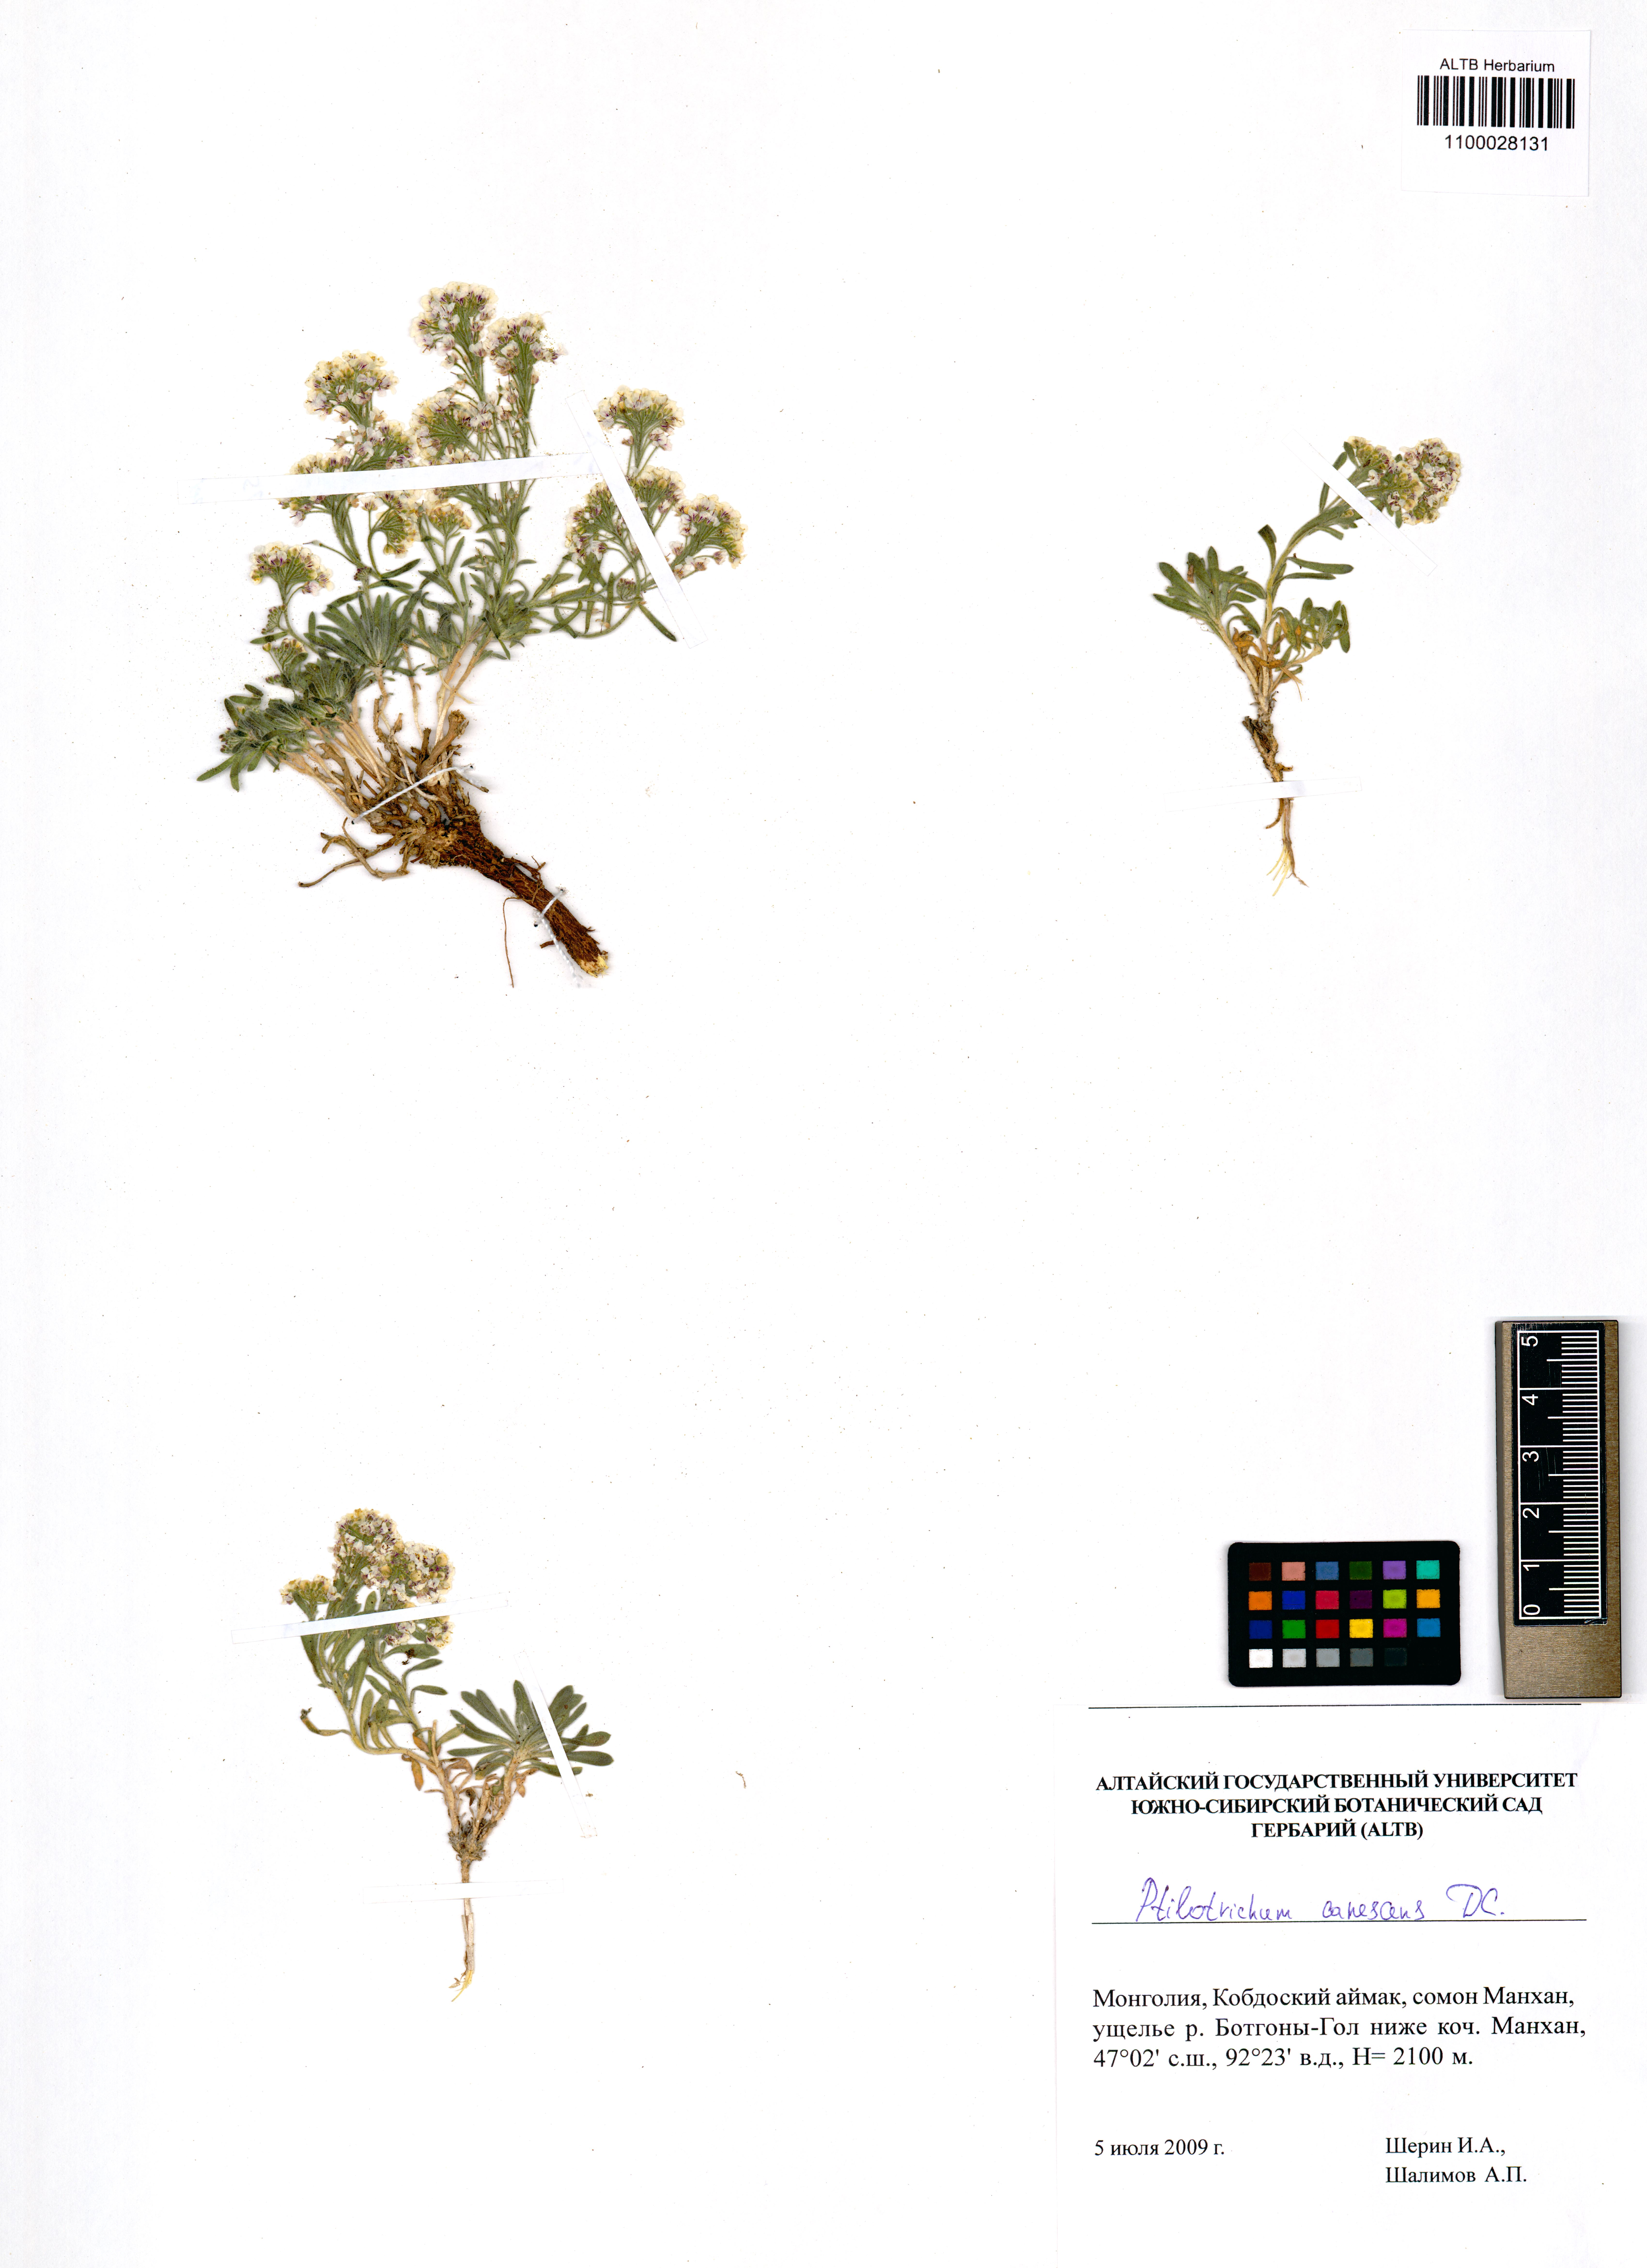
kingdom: Plantae
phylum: Tracheophyta
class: Magnoliopsida
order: Brassicales
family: Brassicaceae
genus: Stevenia
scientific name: Stevenia canescens
